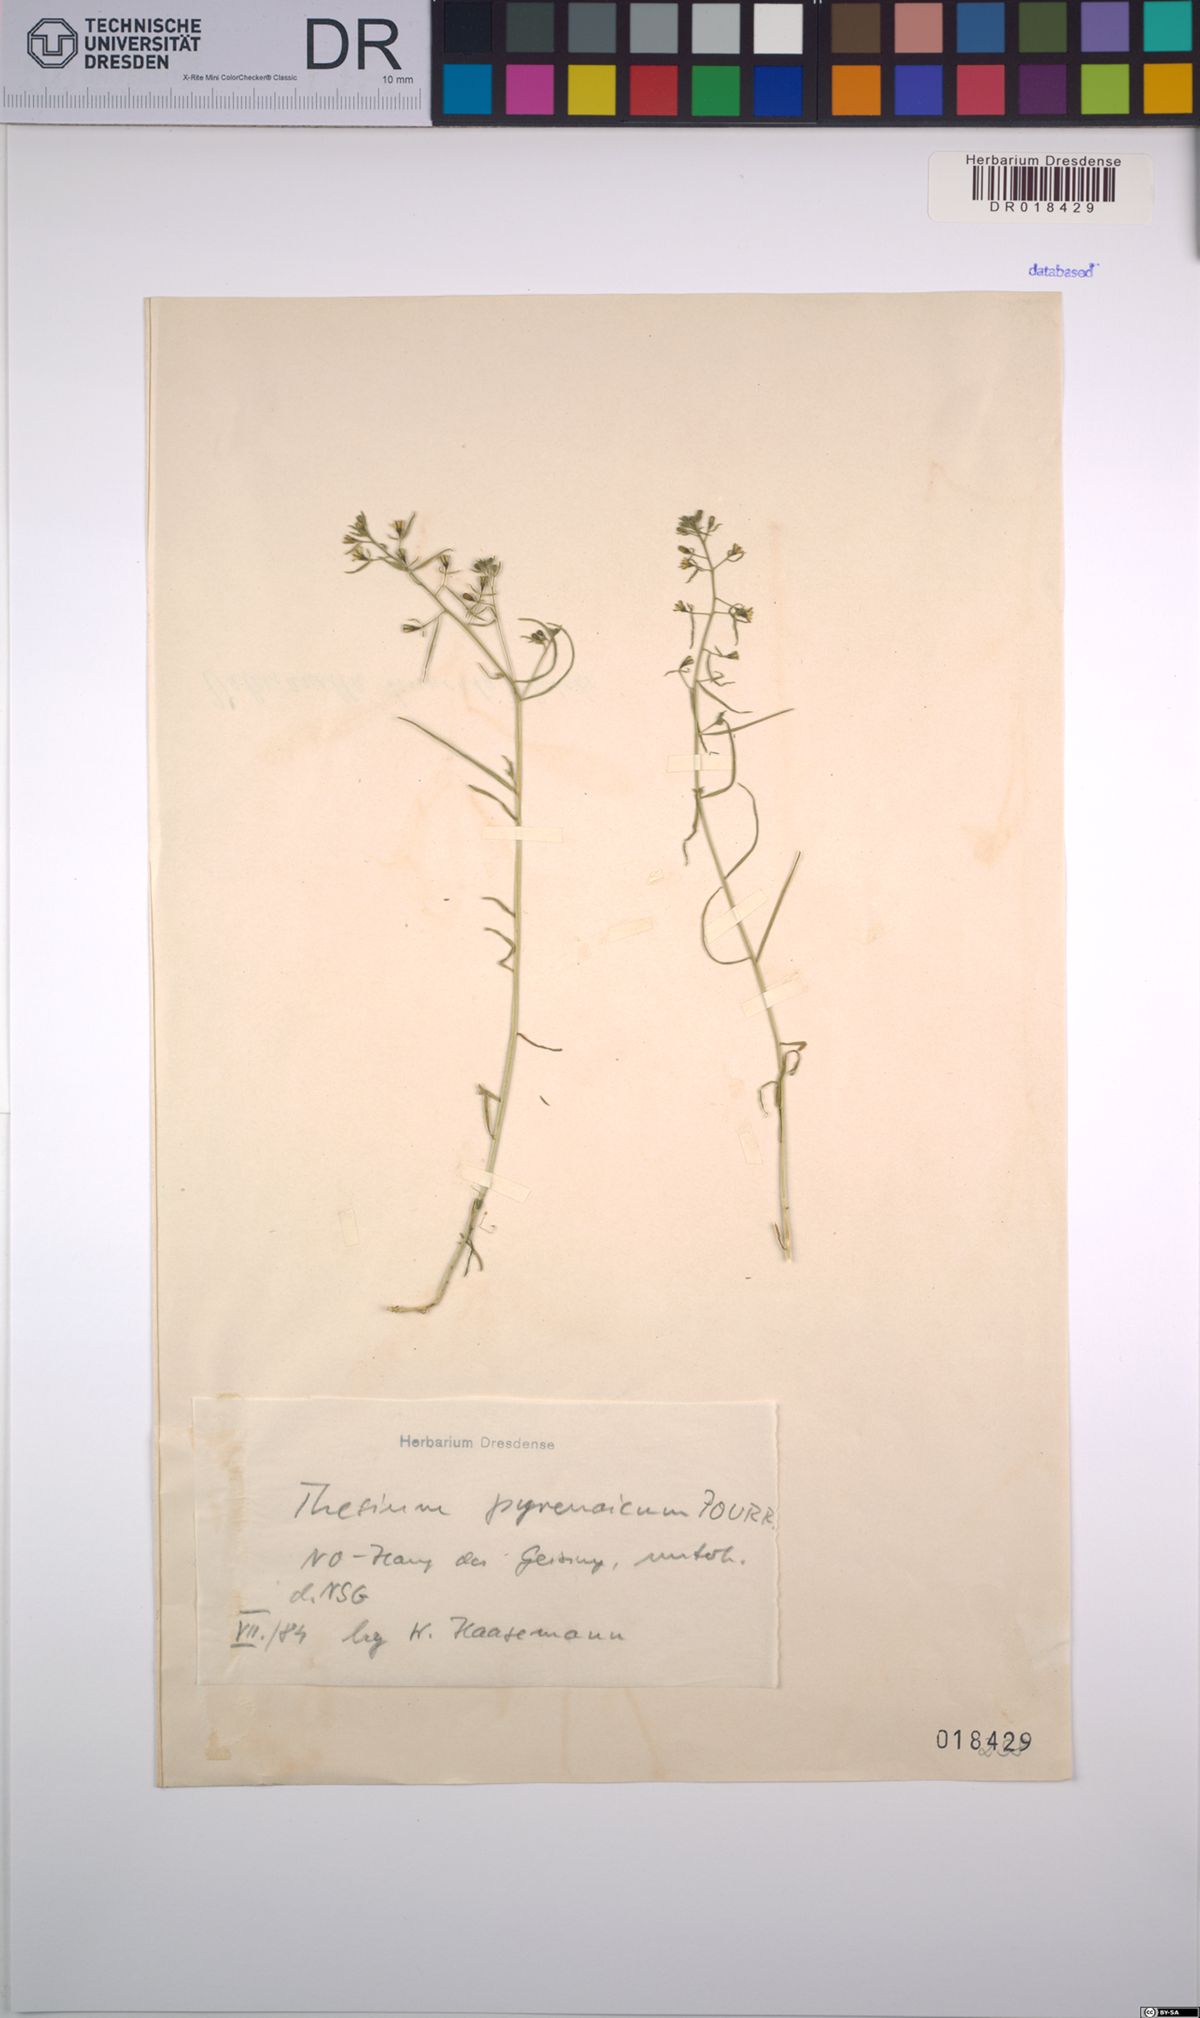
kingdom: Plantae
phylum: Tracheophyta
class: Magnoliopsida
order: Santalales
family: Thesiaceae
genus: Thesium
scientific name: Thesium pyrenaicum
